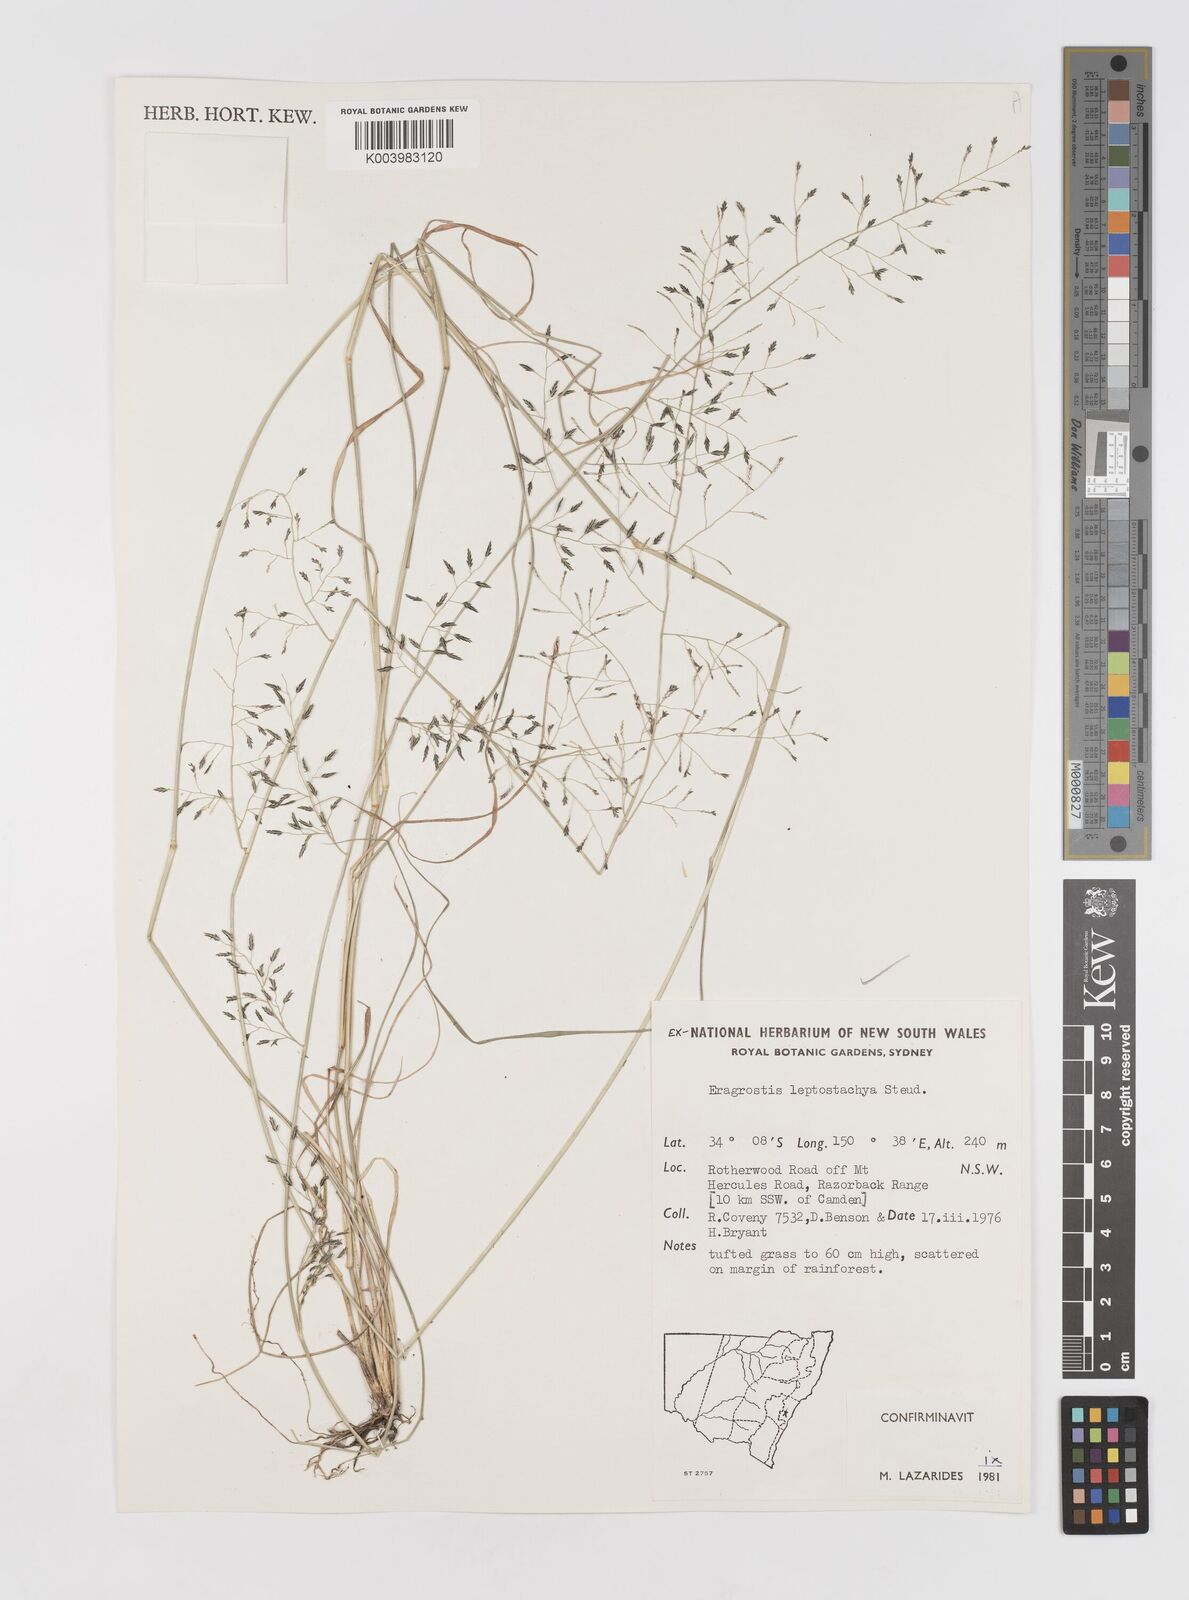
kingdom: Plantae
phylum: Tracheophyta
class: Liliopsida
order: Poales
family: Poaceae
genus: Eragrostis
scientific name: Eragrostis leptostachya
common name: Australian lovegrass
